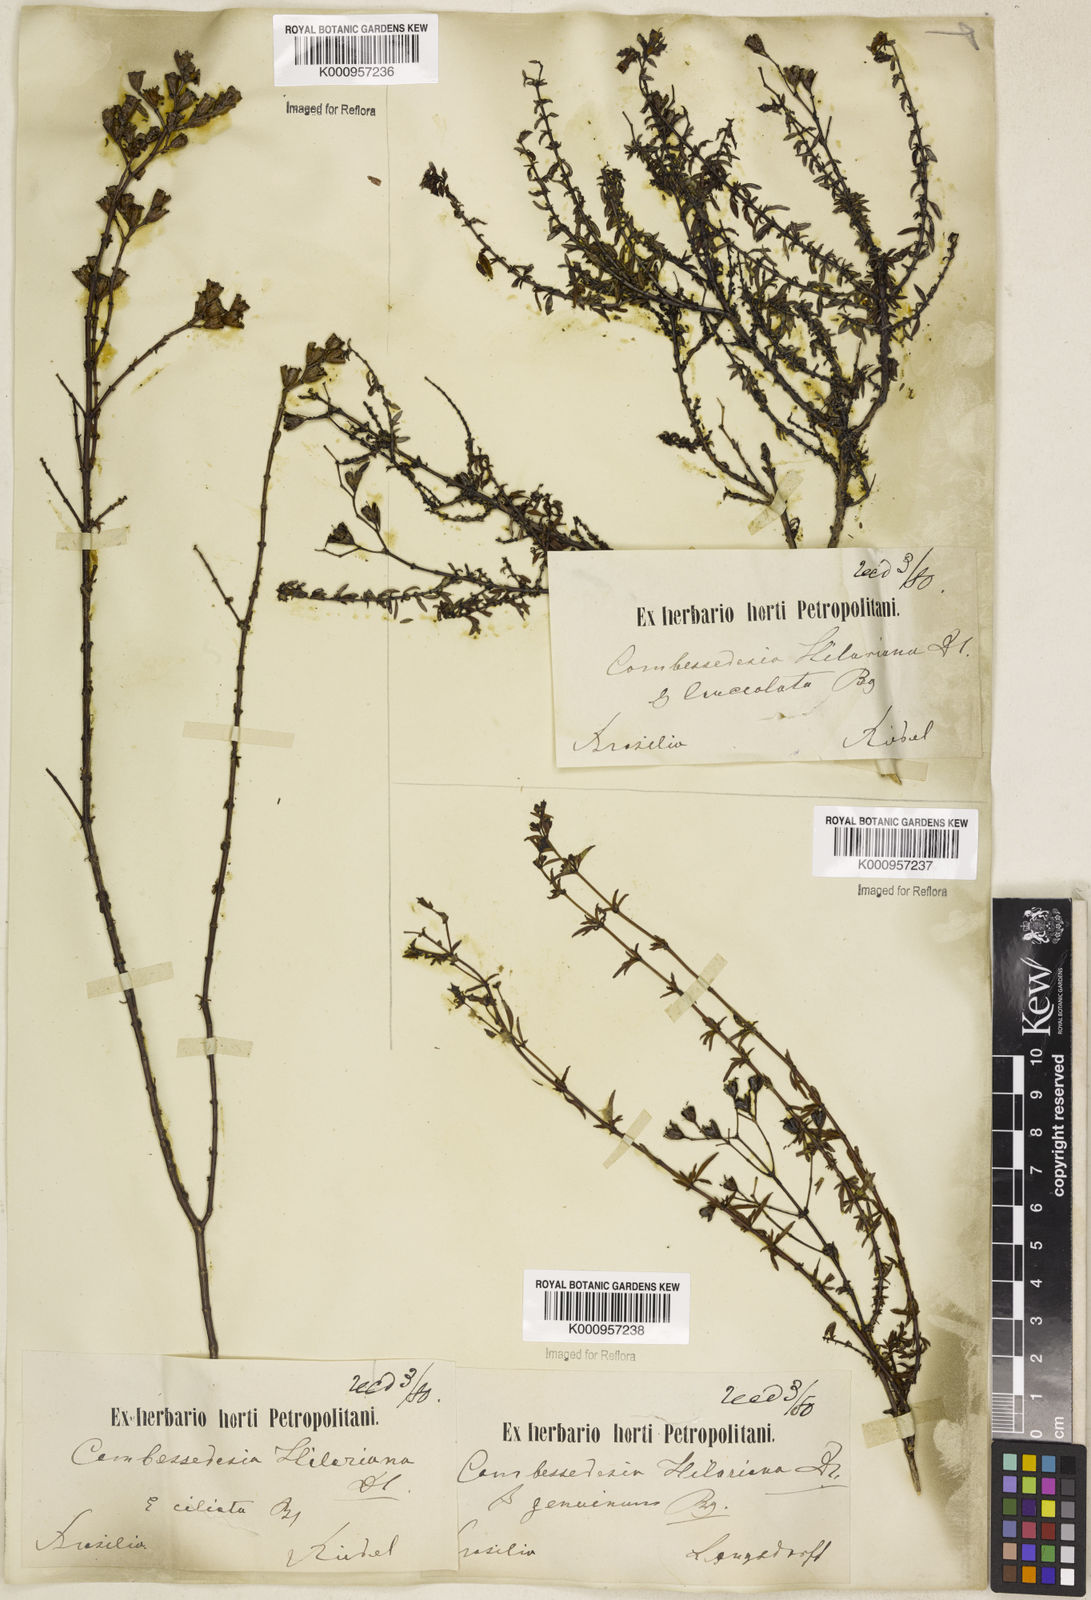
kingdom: Plantae
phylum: Tracheophyta
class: Magnoliopsida
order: Myrtales
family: Melastomataceae
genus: Cambessedesia
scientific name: Cambessedesia hilariana
